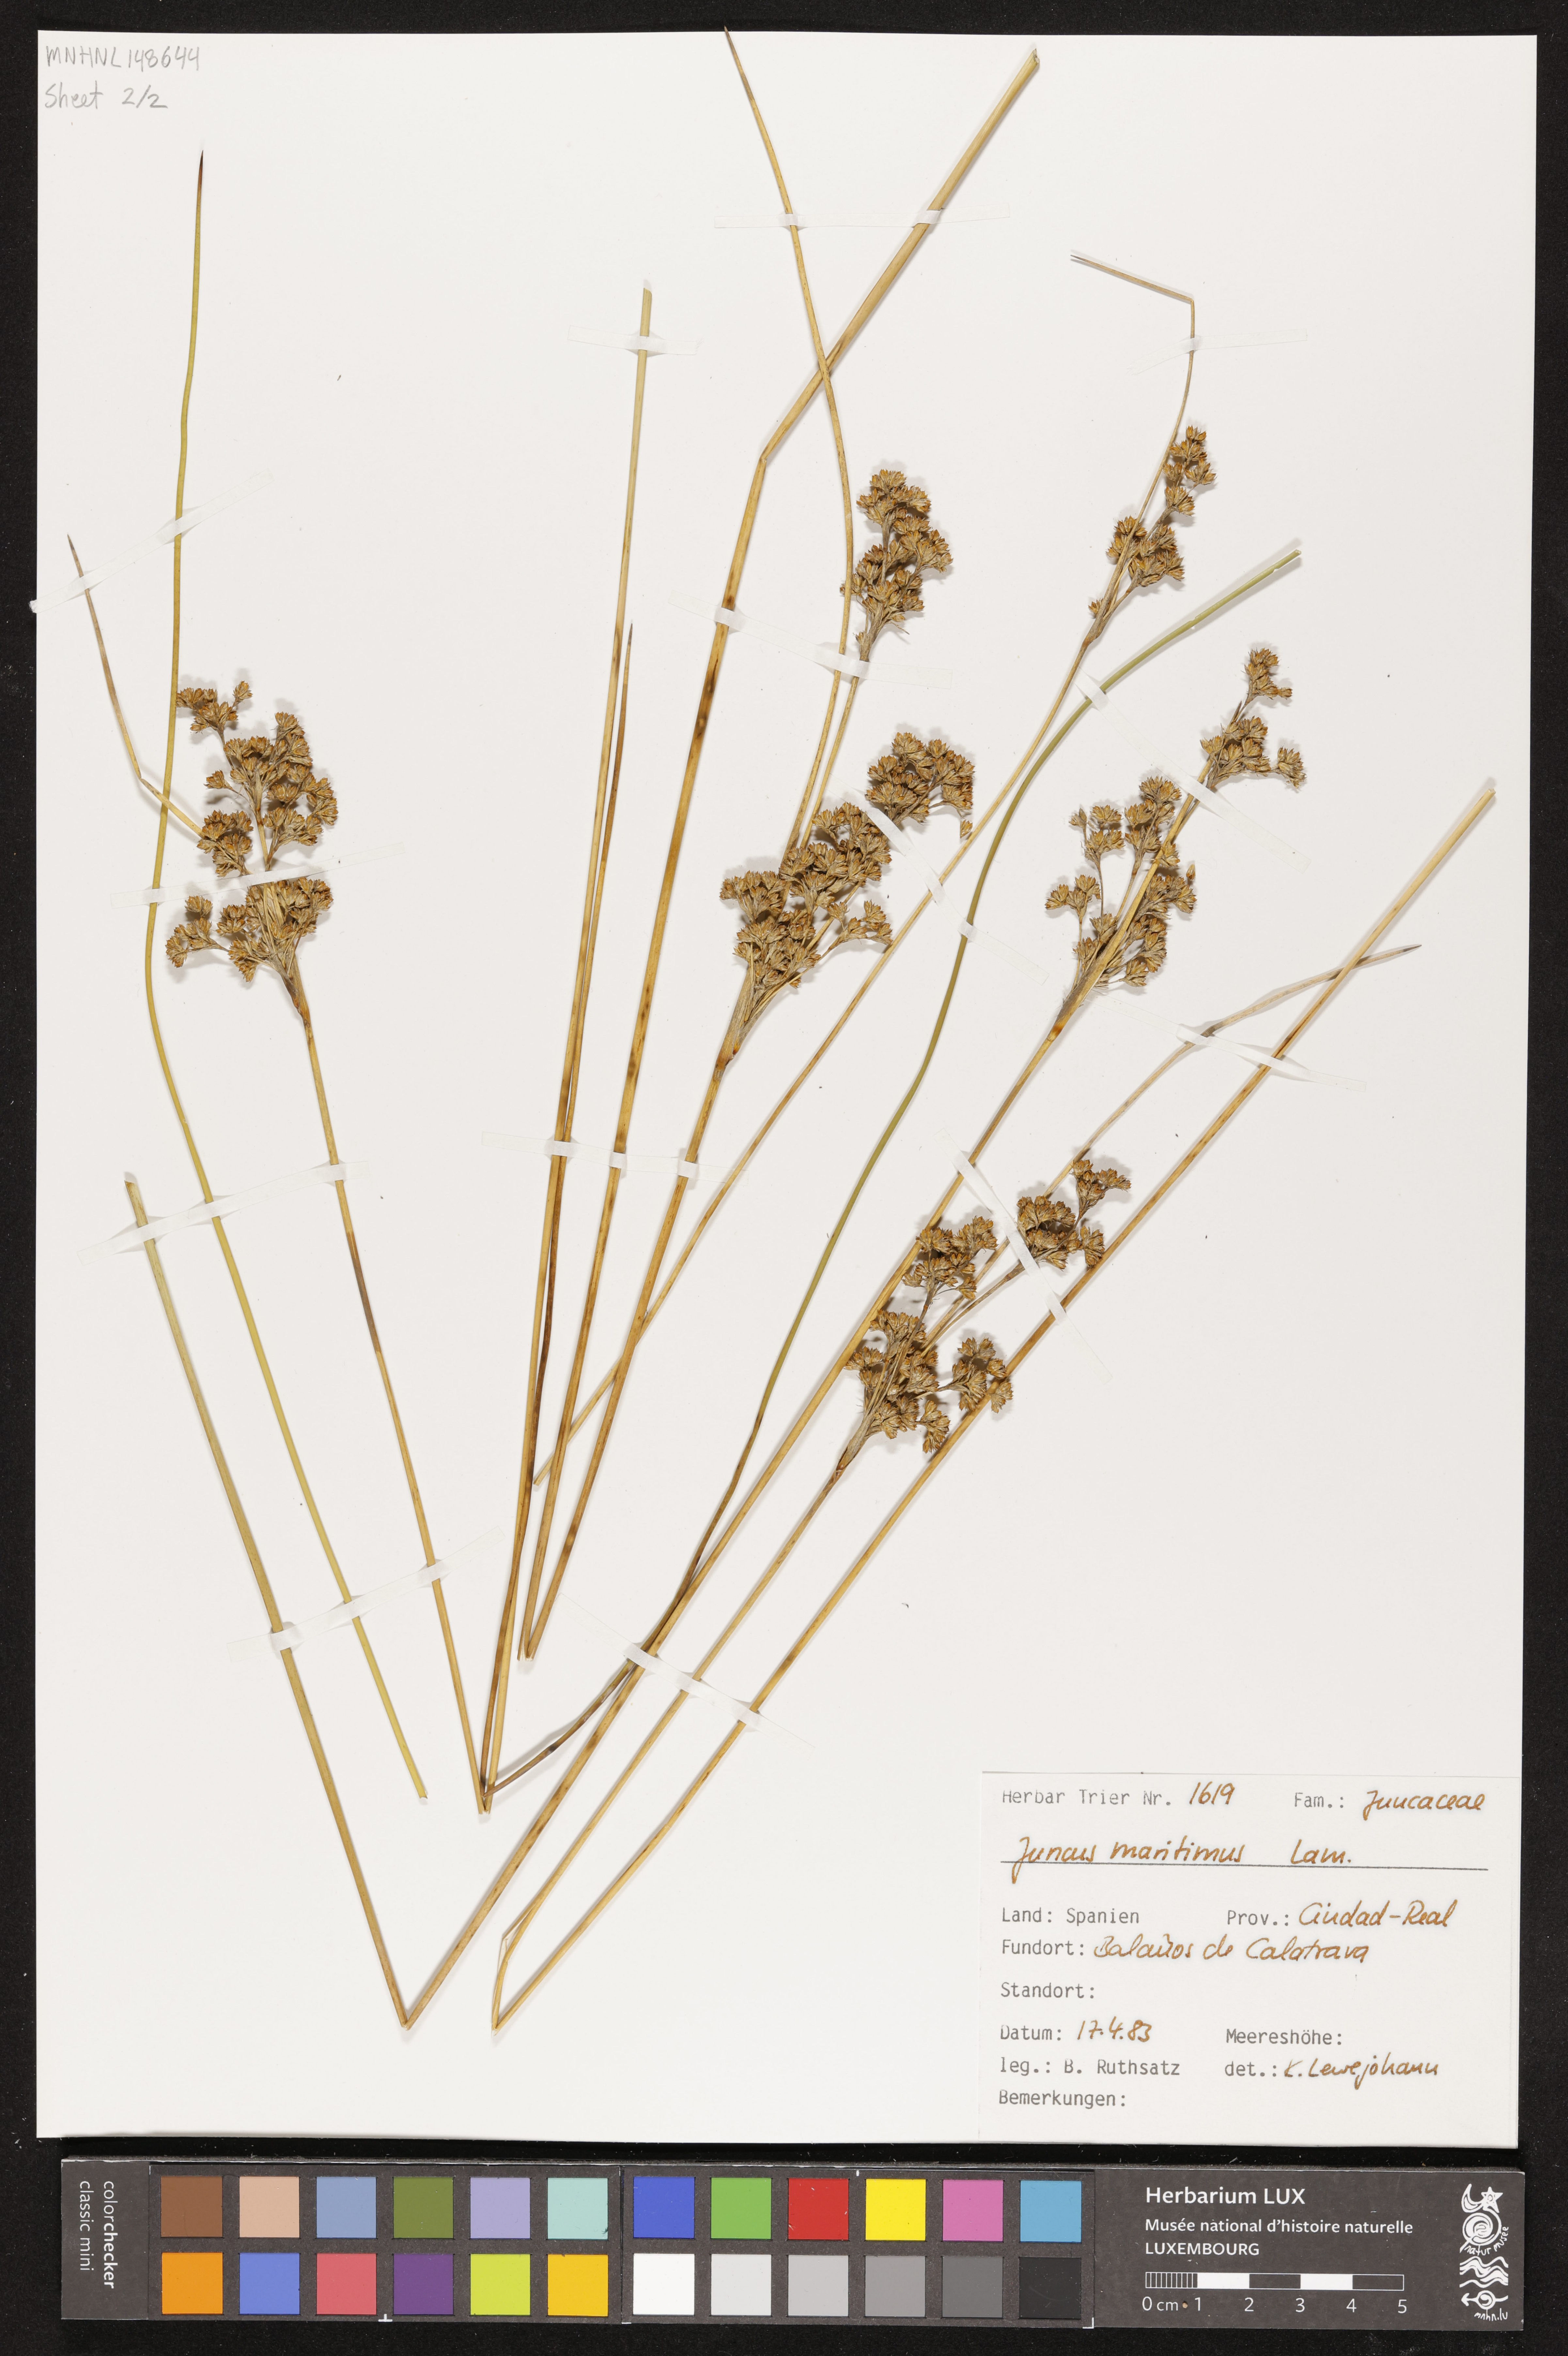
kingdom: Plantae
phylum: Tracheophyta
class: Liliopsida
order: Poales
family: Juncaceae
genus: Juncus
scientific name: Juncus maritimus
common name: Sea rush
